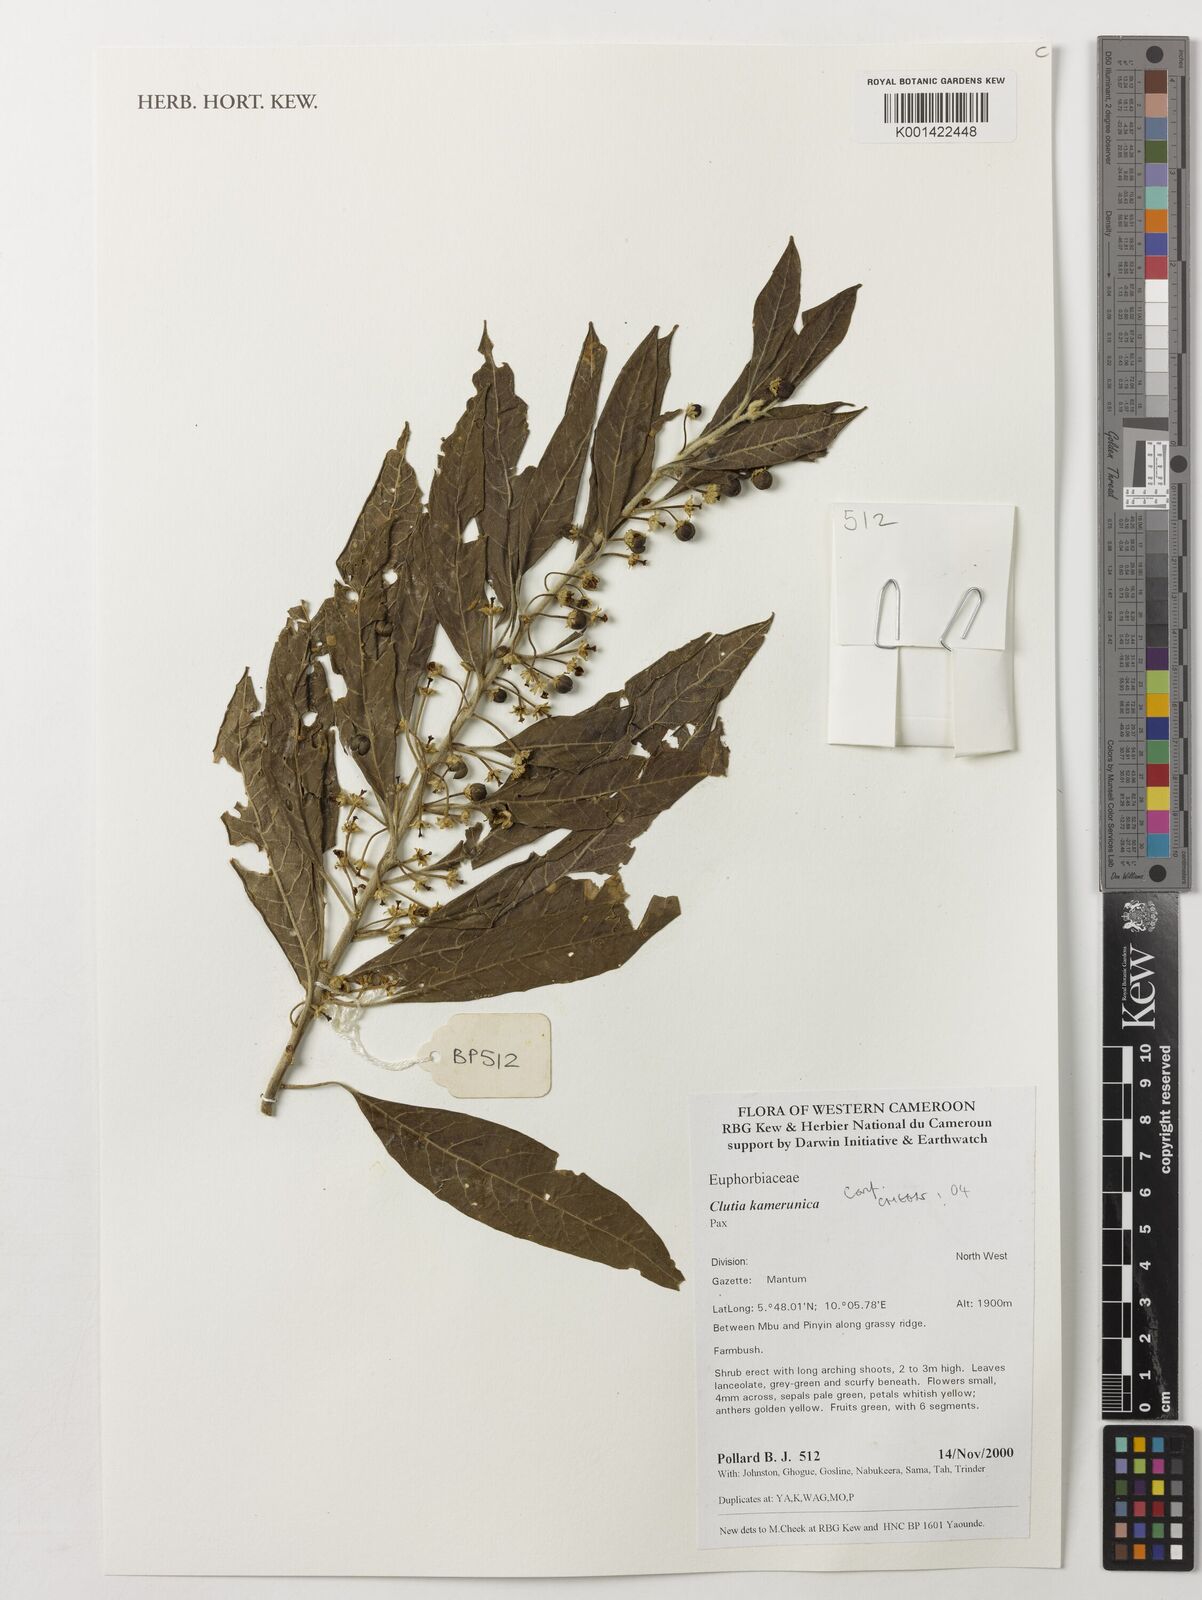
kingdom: Plantae
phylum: Tracheophyta
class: Magnoliopsida
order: Malpighiales
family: Peraceae
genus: Clutia
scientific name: Clutia kamerunica
